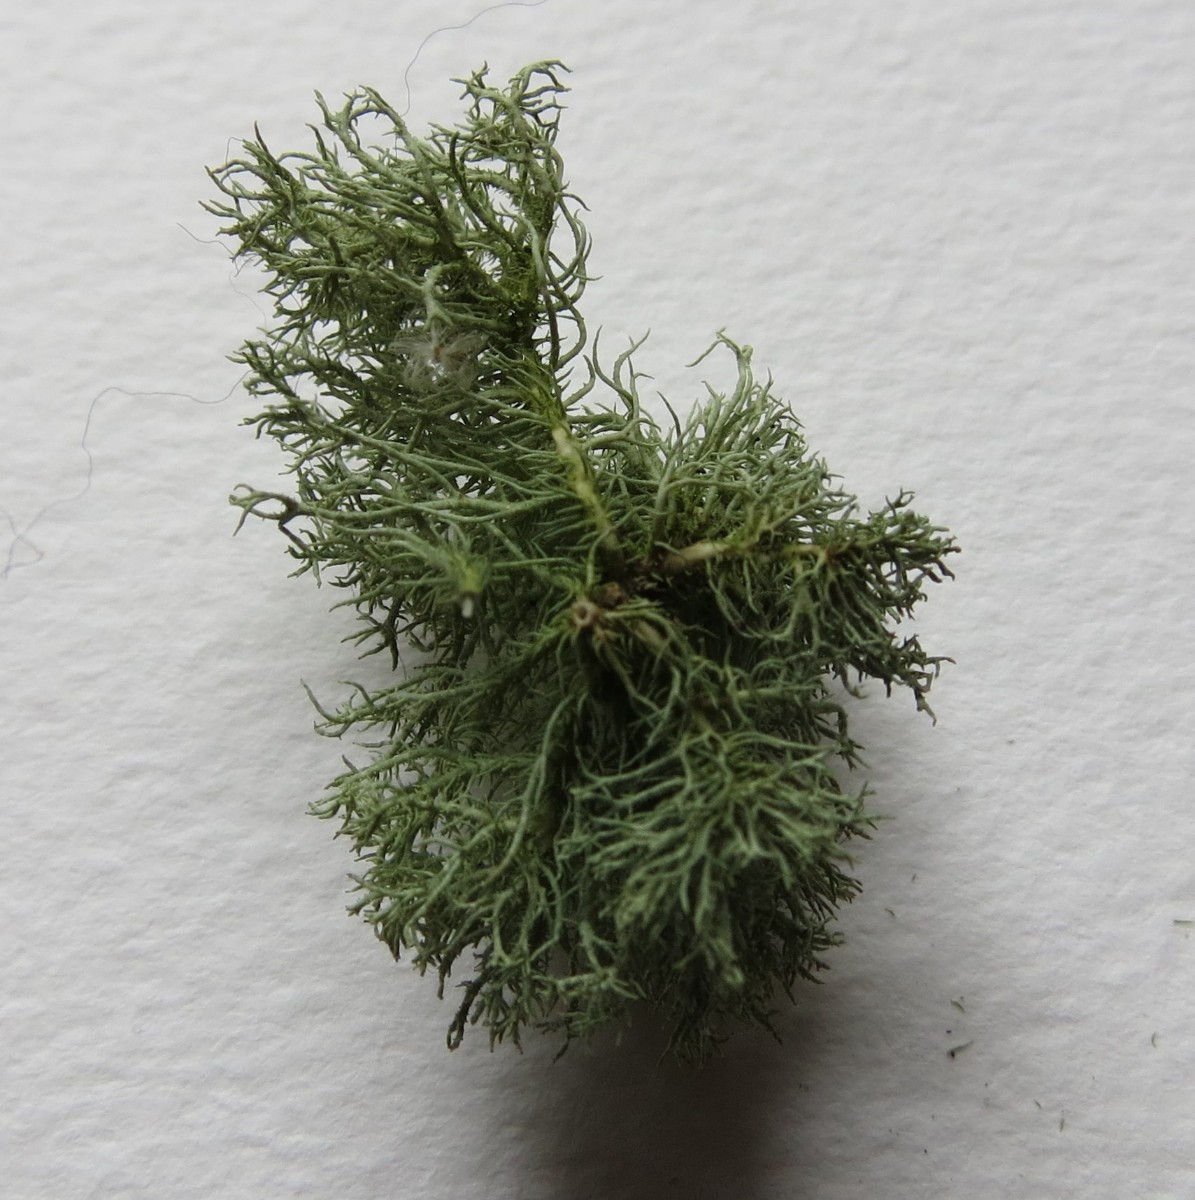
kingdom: Fungi
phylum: Ascomycota
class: Lecanoromycetes
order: Lecanorales
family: Parmeliaceae
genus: Usnea
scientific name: Usnea hirta
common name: liden skæglav
